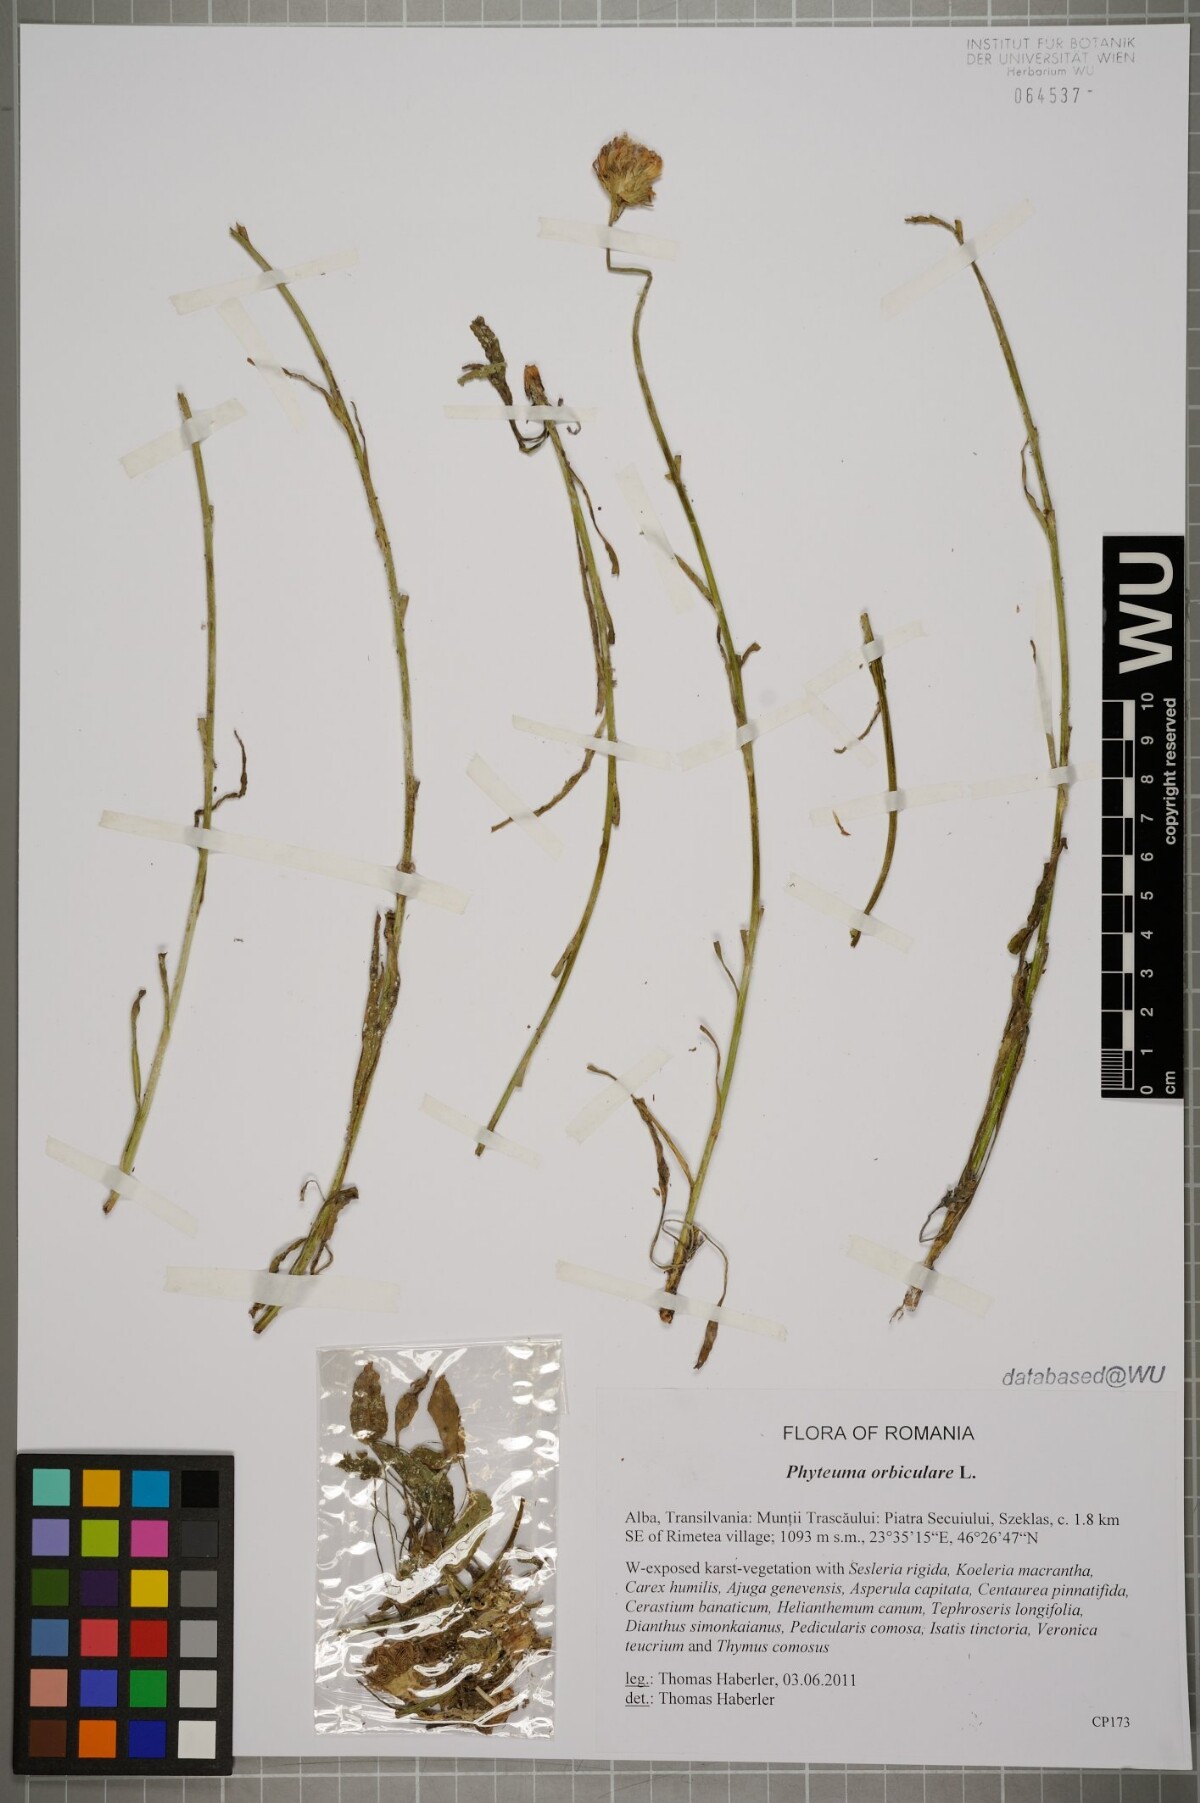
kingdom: Plantae
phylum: Tracheophyta
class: Magnoliopsida
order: Asterales
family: Campanulaceae
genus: Phyteuma
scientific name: Phyteuma orbiculare
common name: Round-headed rampion
